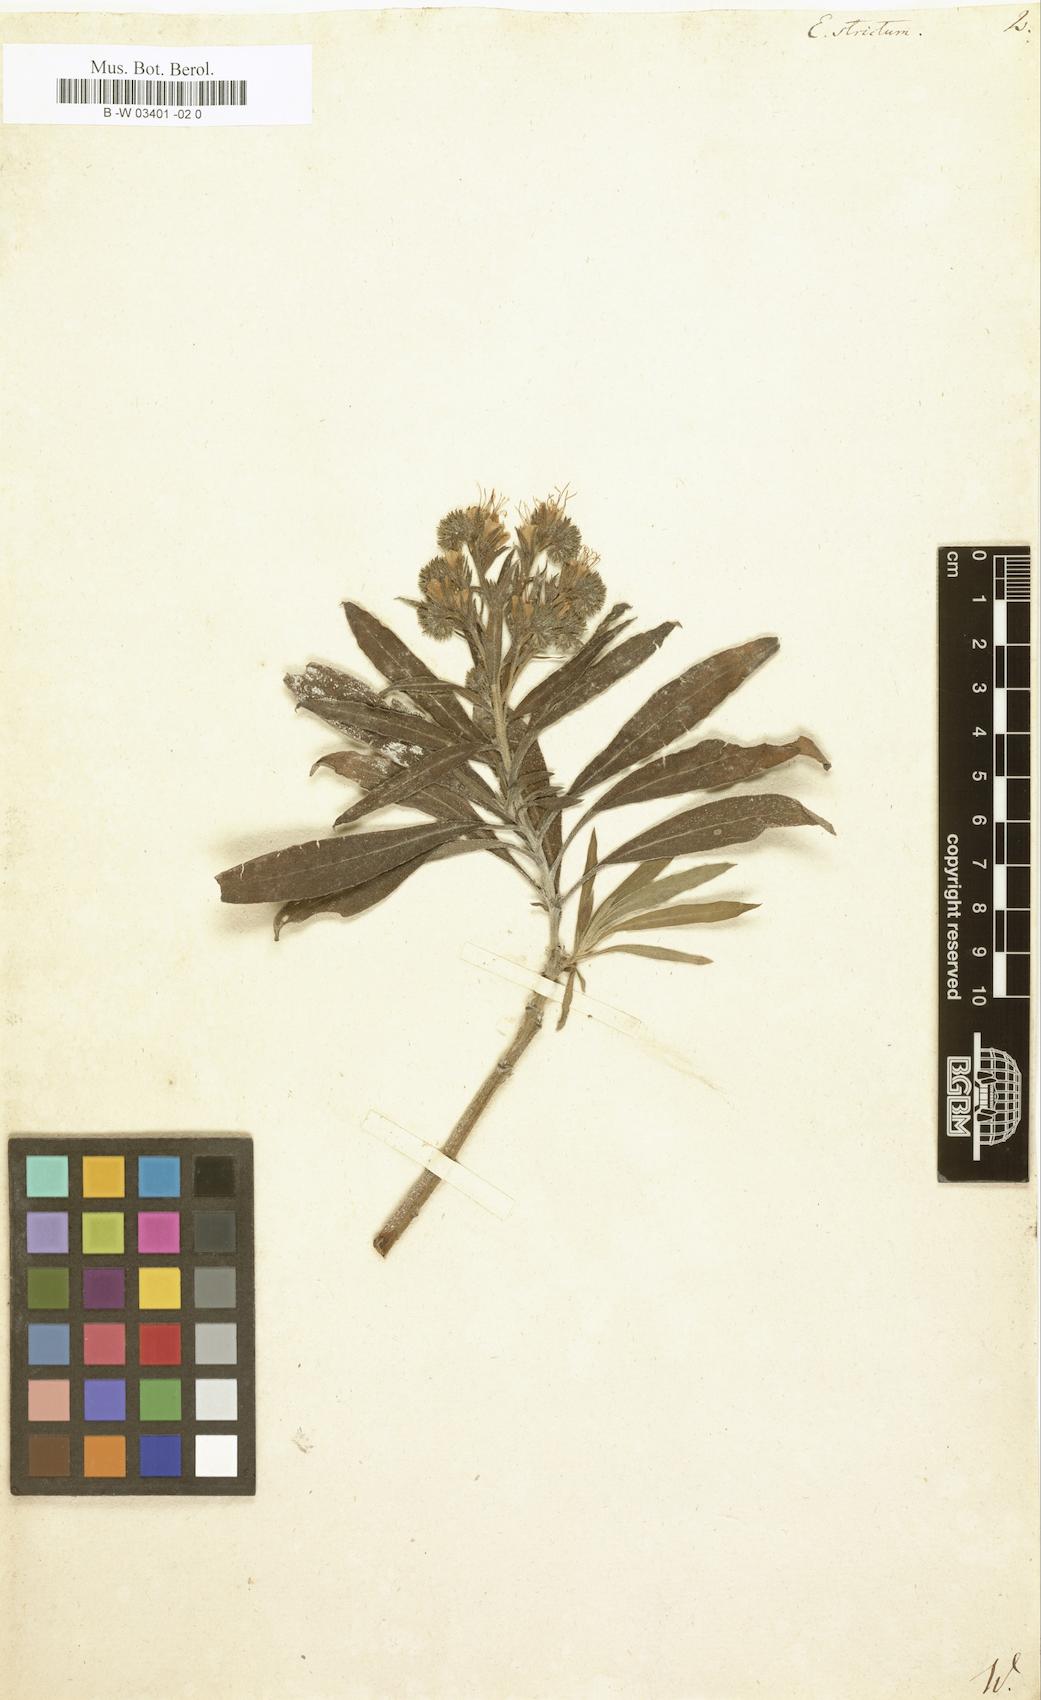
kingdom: Plantae
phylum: Tracheophyta
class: Magnoliopsida
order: Boraginales
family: Boraginaceae
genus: Echium
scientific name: Echium strictum
